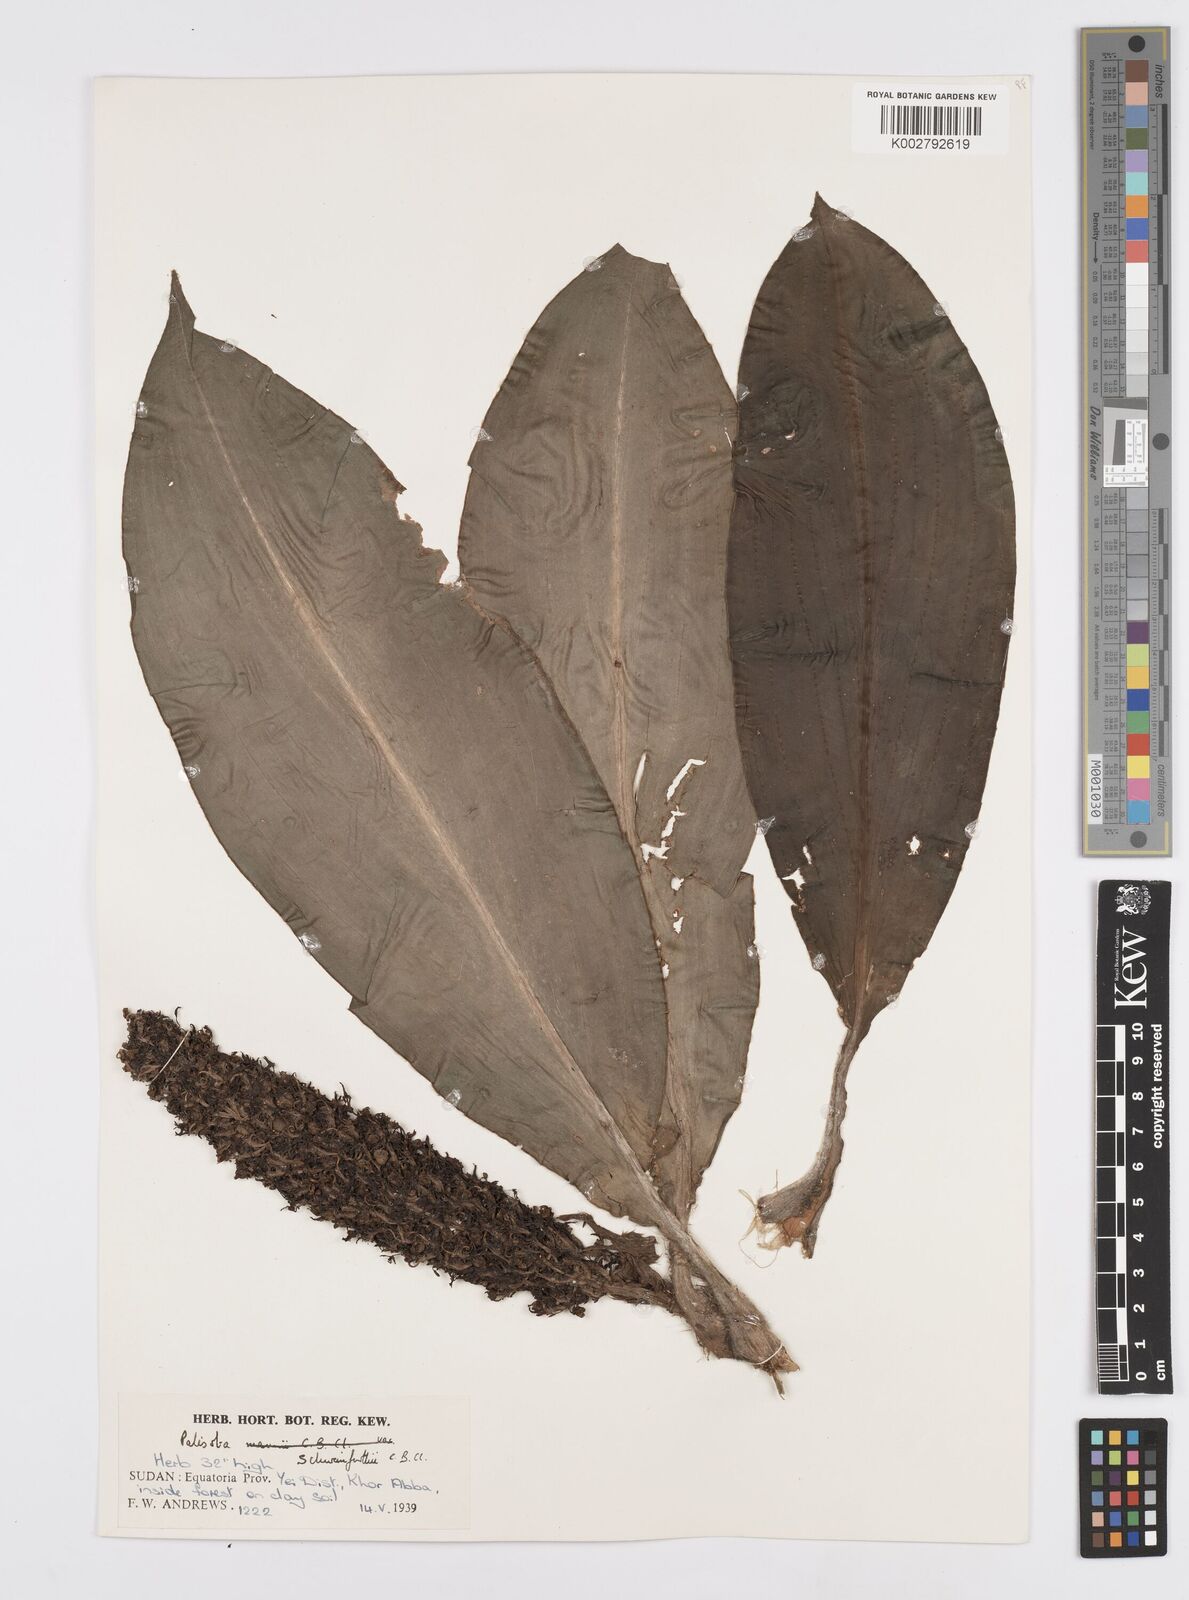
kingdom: Plantae
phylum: Tracheophyta
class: Liliopsida
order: Commelinales
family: Commelinaceae
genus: Palisota
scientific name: Palisota schweinfurthii
